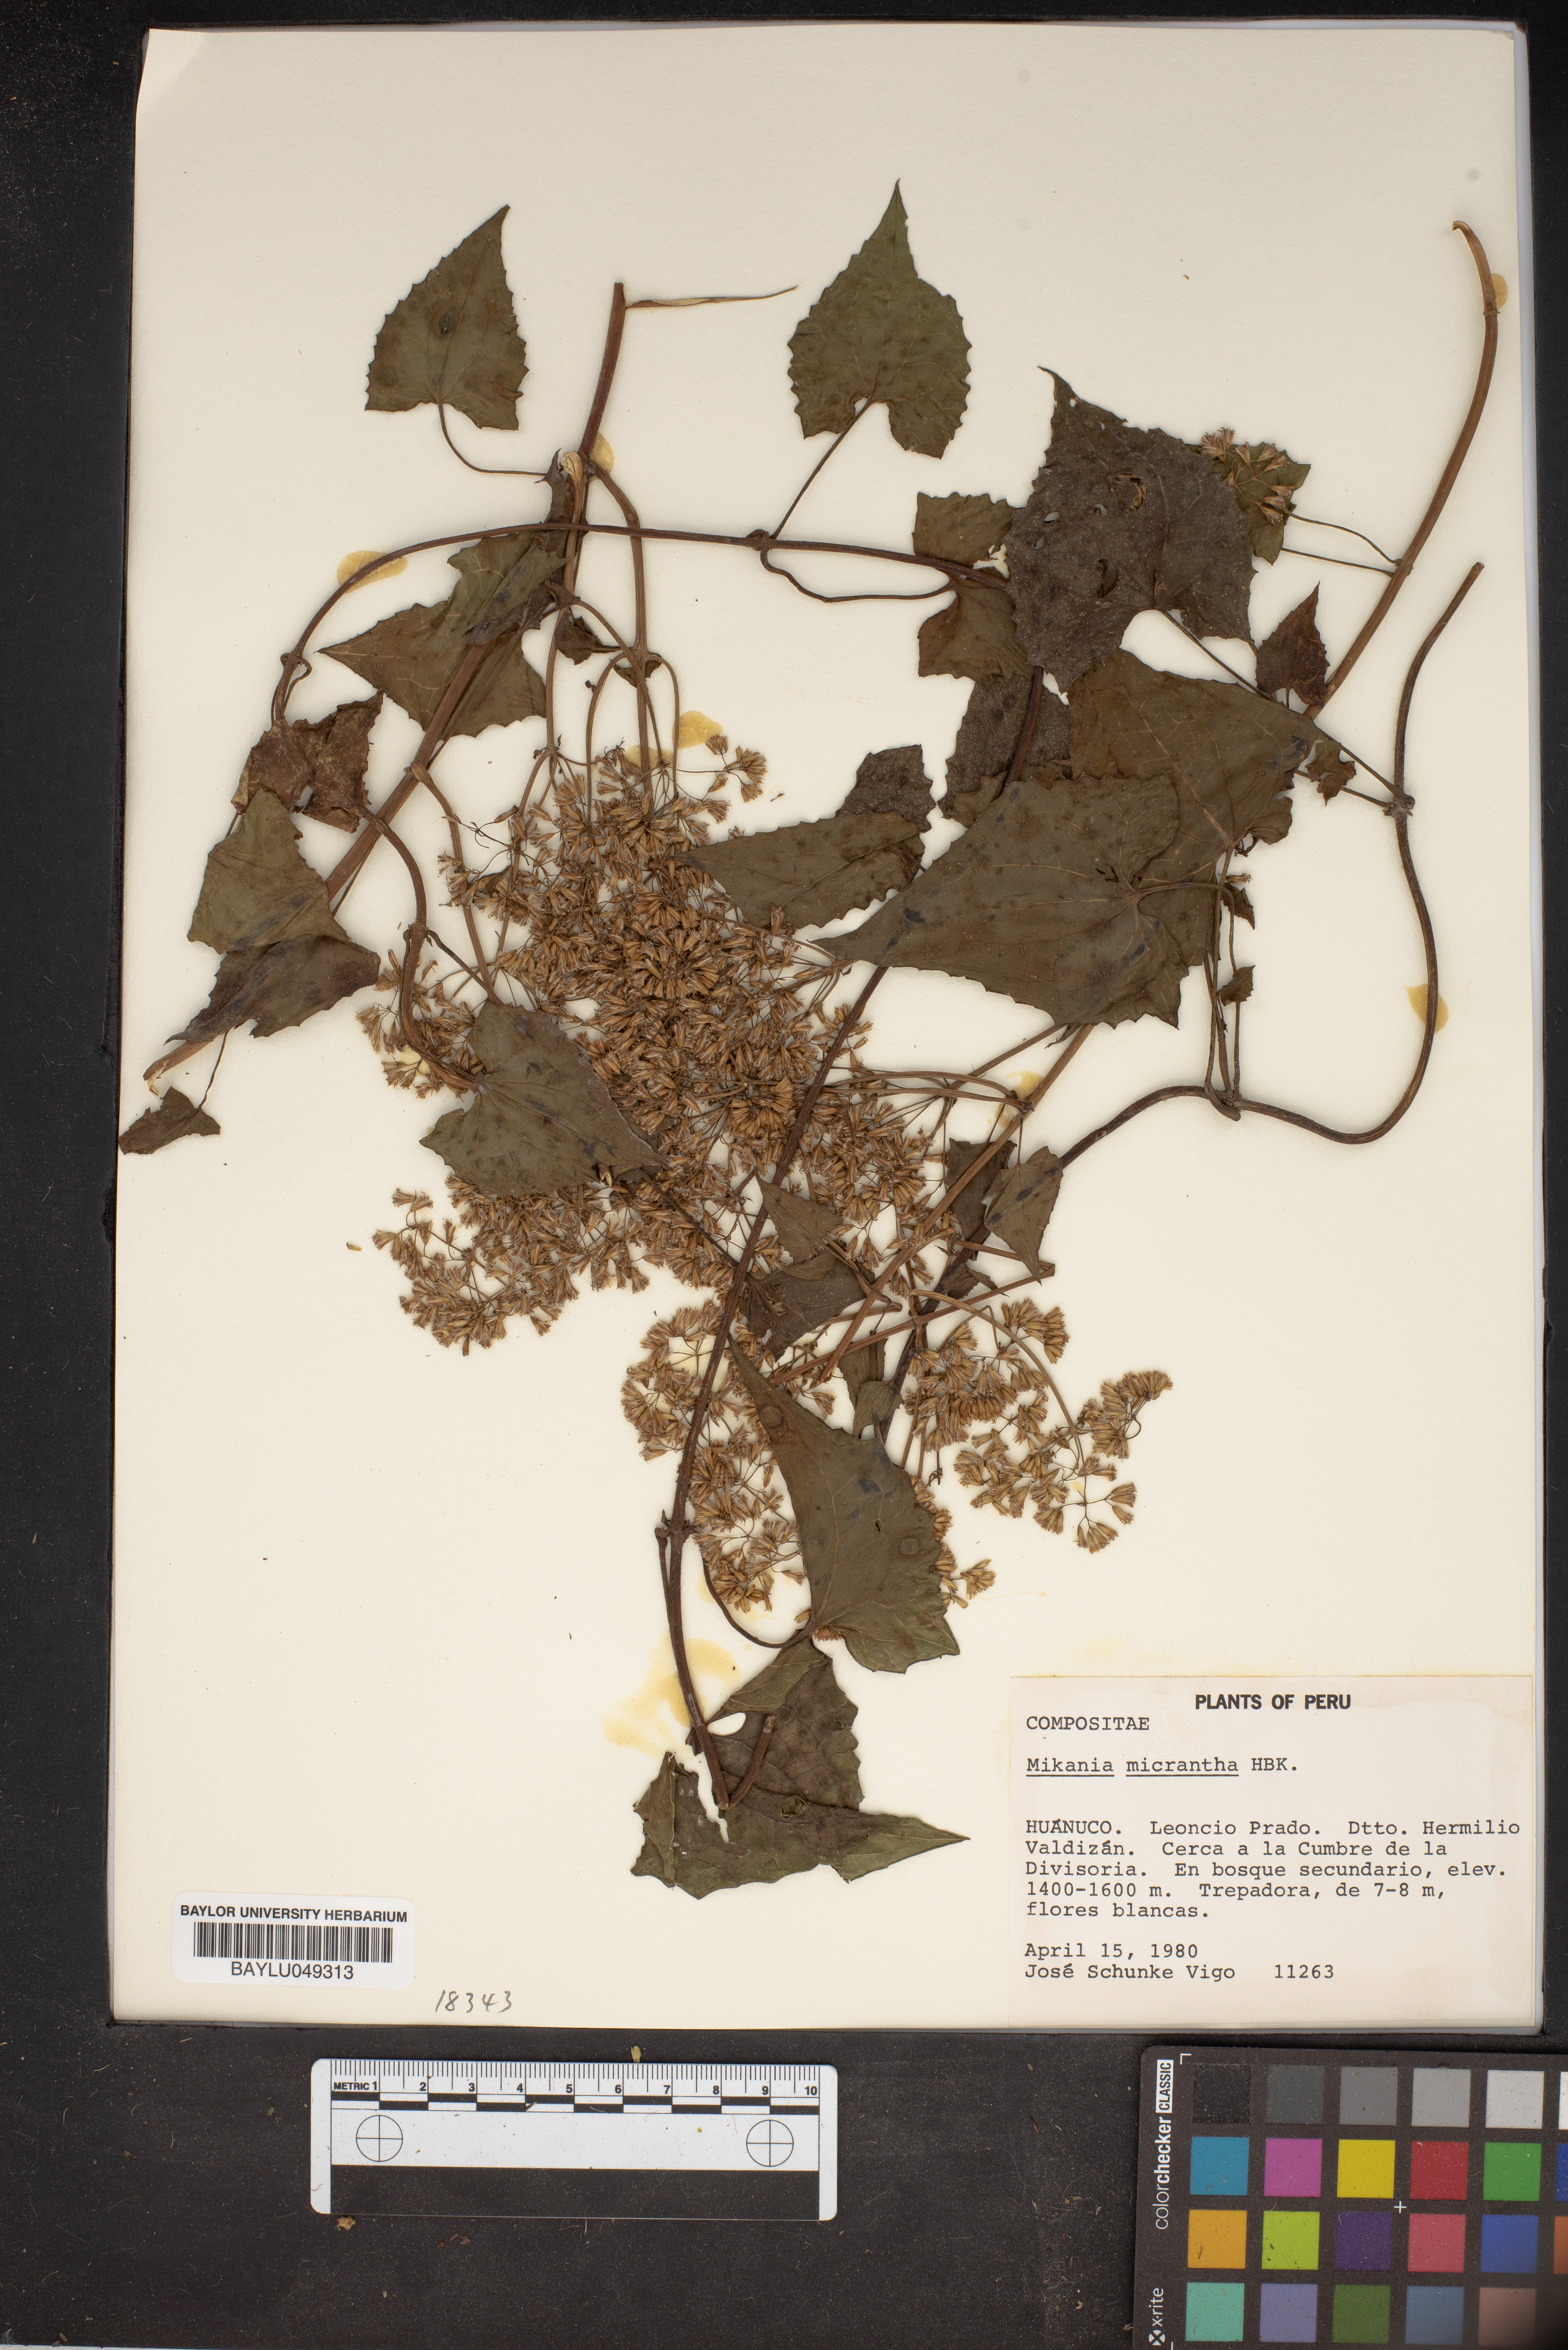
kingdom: Plantae
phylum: Tracheophyta
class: Magnoliopsida
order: Asterales
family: Asteraceae
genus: Mikania
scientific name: Mikania micrantha
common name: Mile-a-minute
